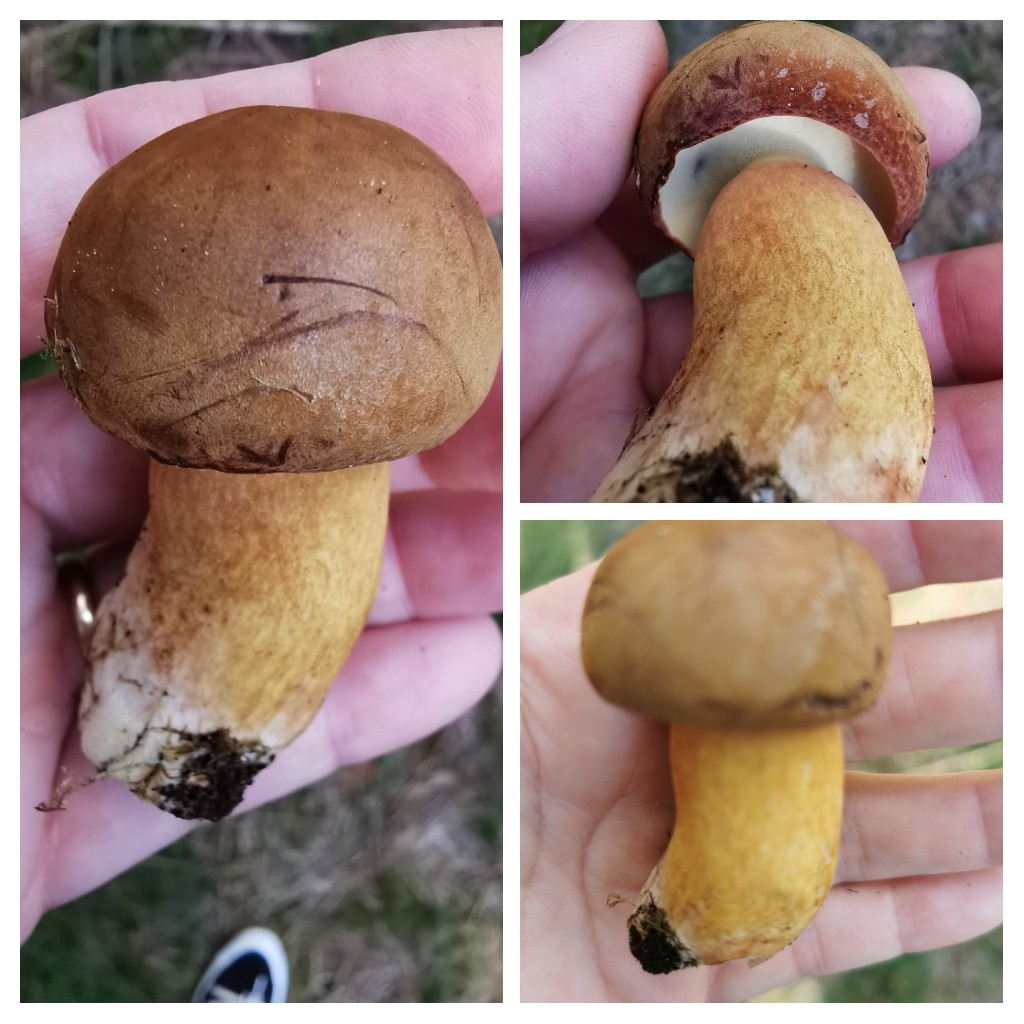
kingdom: Fungi
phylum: Basidiomycota
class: Agaricomycetes
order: Boletales
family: Boletaceae
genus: Imleria
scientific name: Imleria badia
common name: brunstokket rørhat
